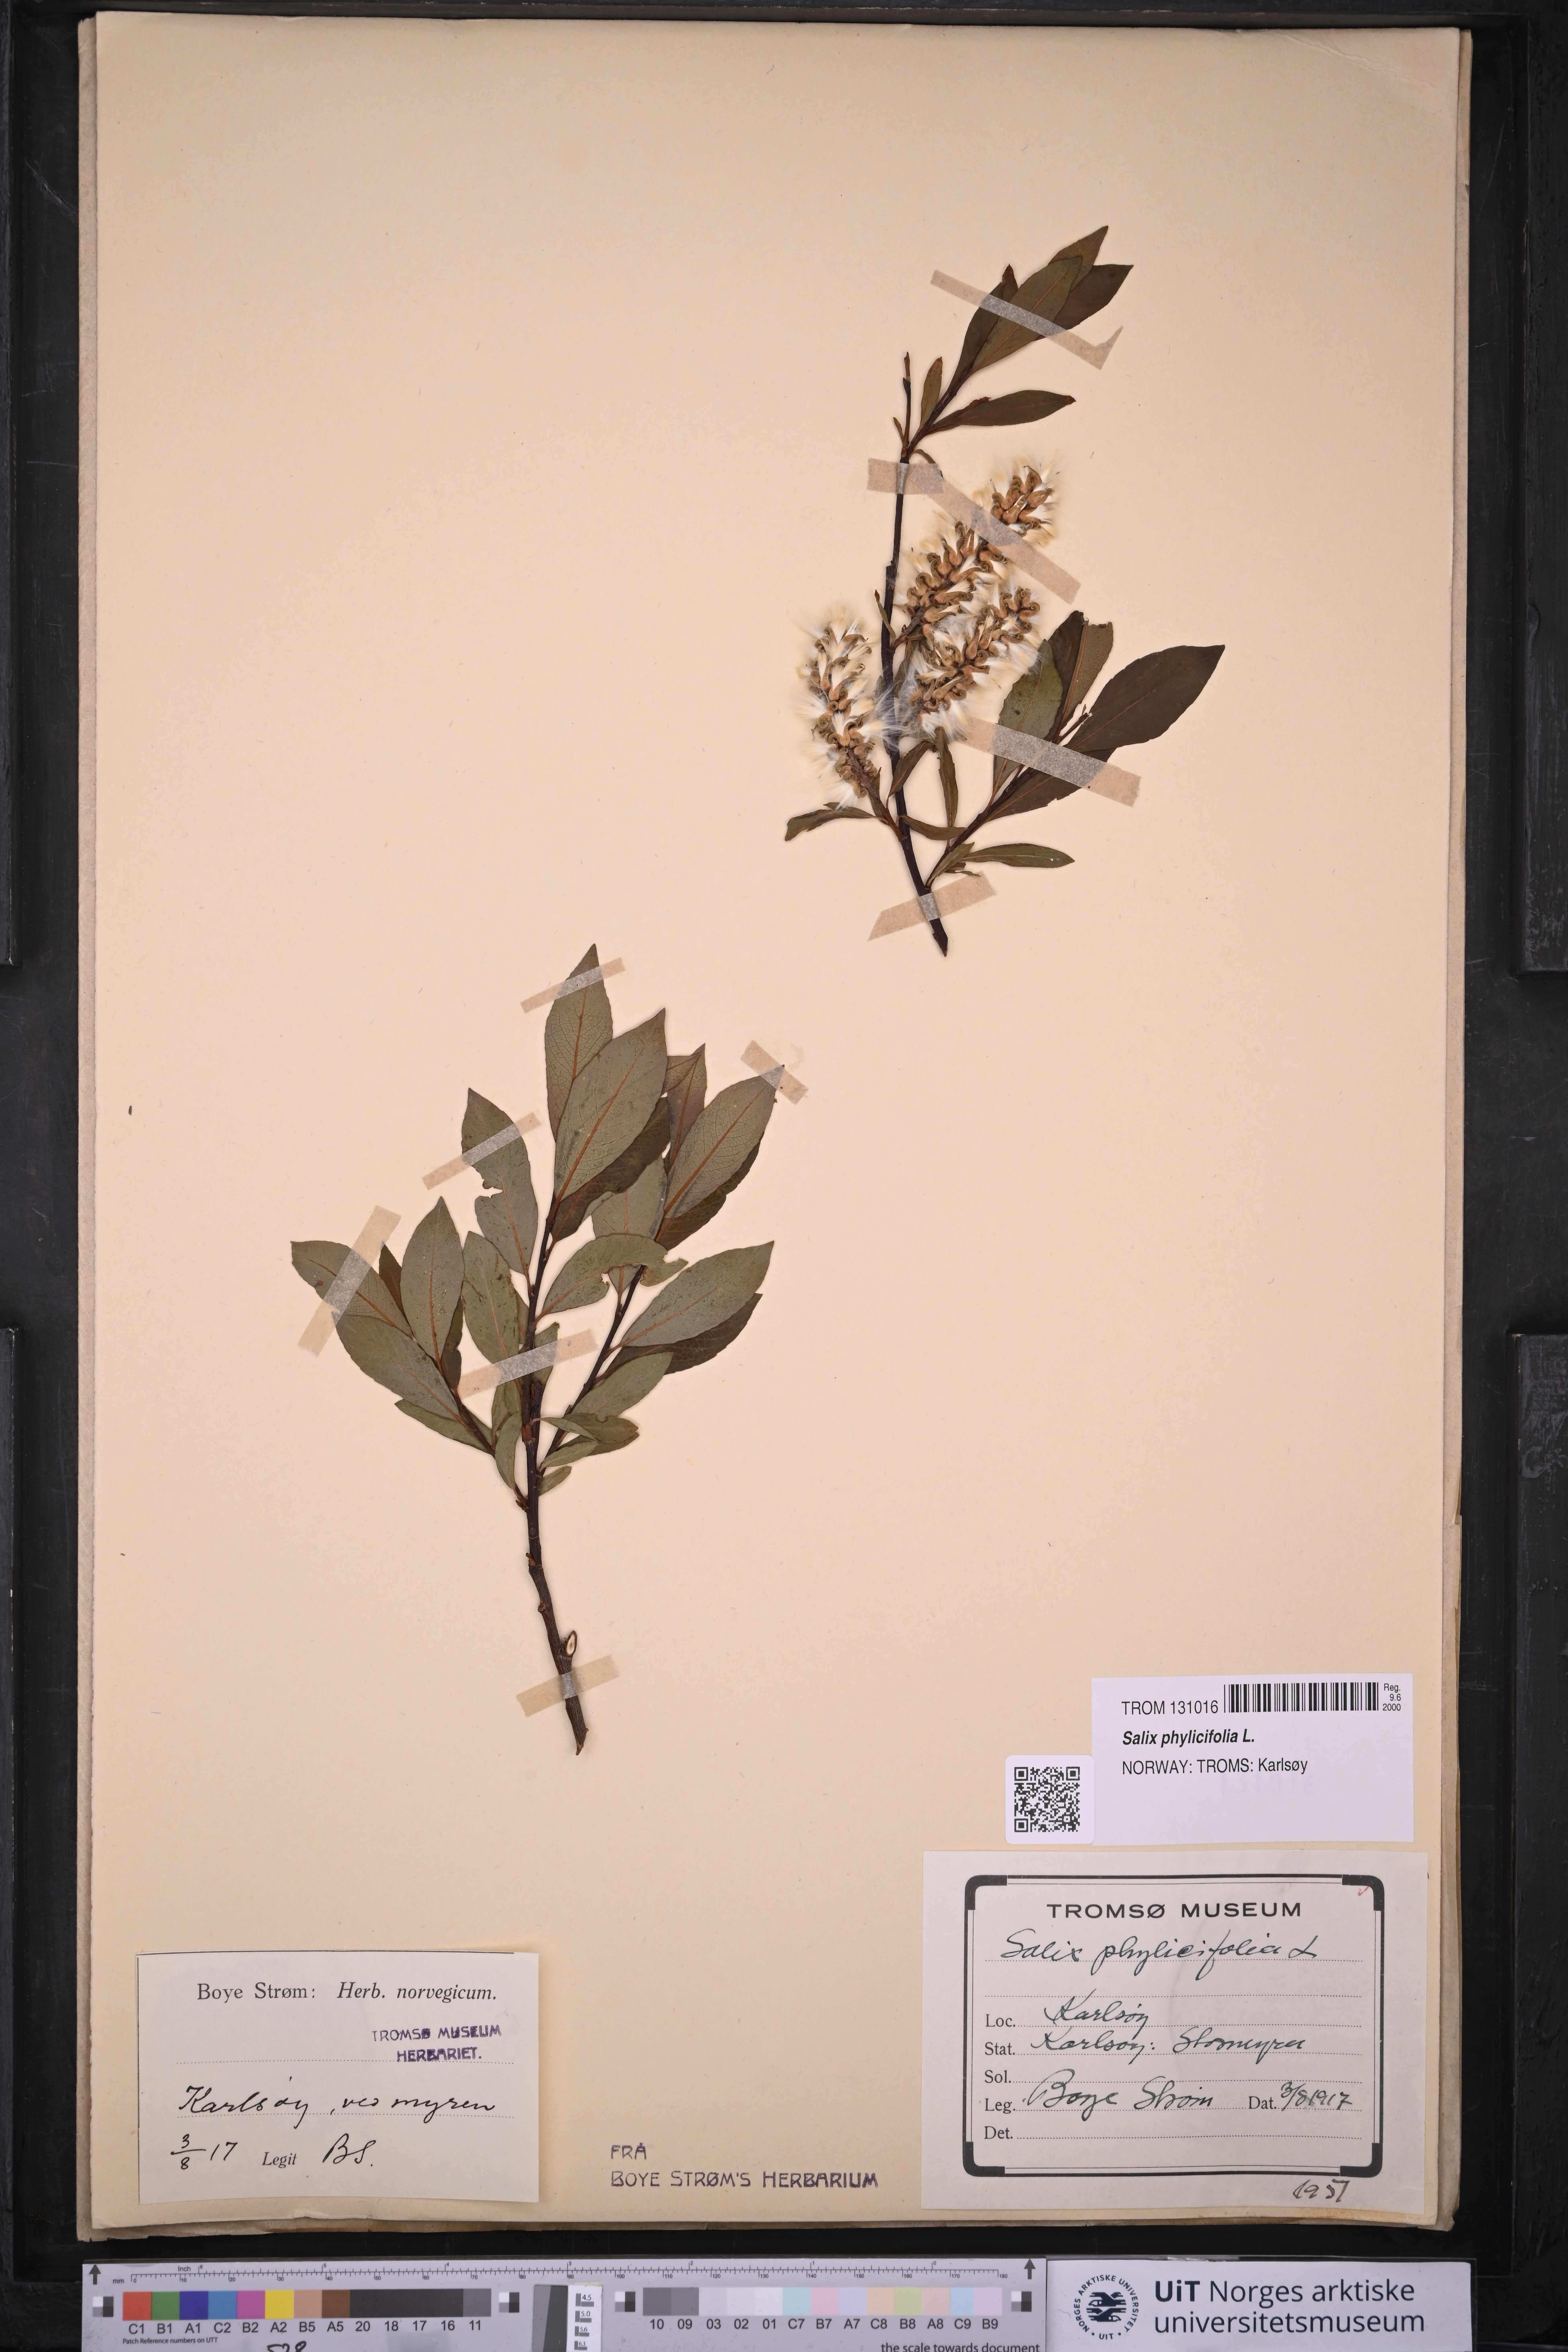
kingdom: Plantae
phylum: Tracheophyta
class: Magnoliopsida
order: Malpighiales
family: Salicaceae
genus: Salix
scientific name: Salix phylicifolia
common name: Tea-leaved willow
